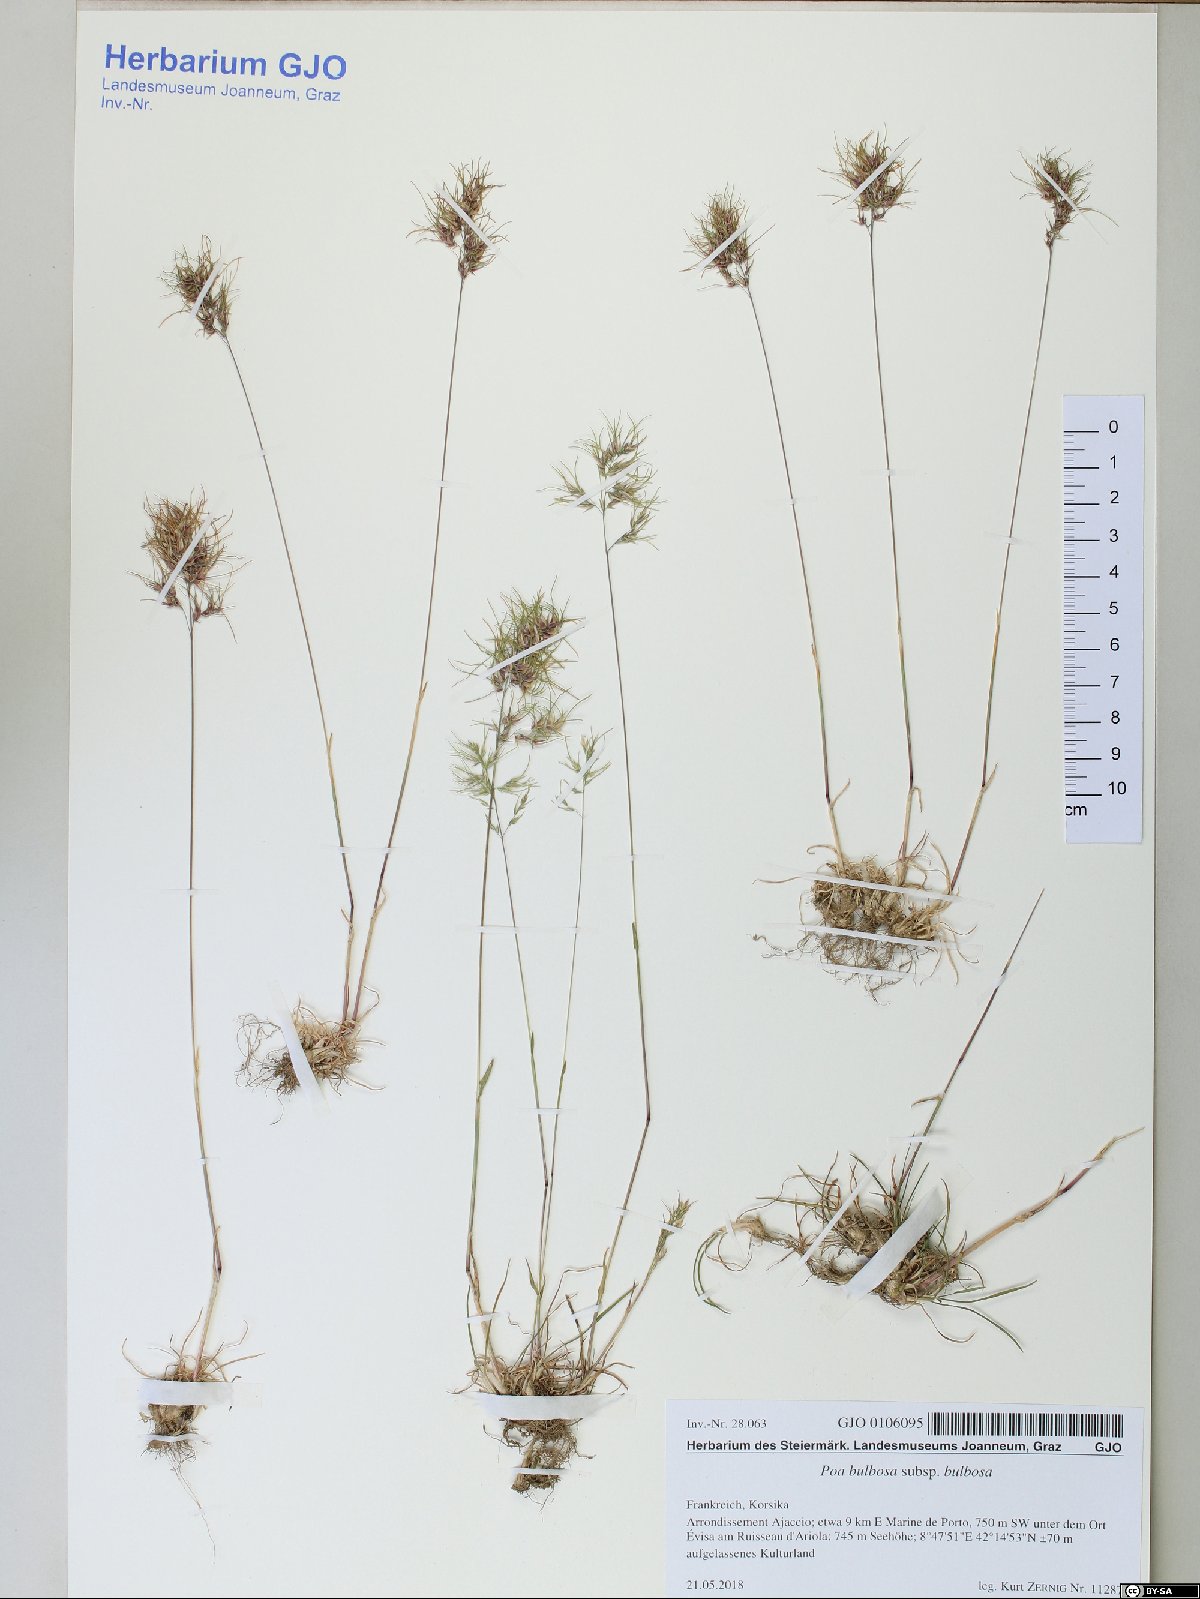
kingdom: Plantae
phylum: Tracheophyta
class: Liliopsida
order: Poales
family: Poaceae
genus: Poa
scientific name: Poa bulbosa
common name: Bulbous bluegrass
